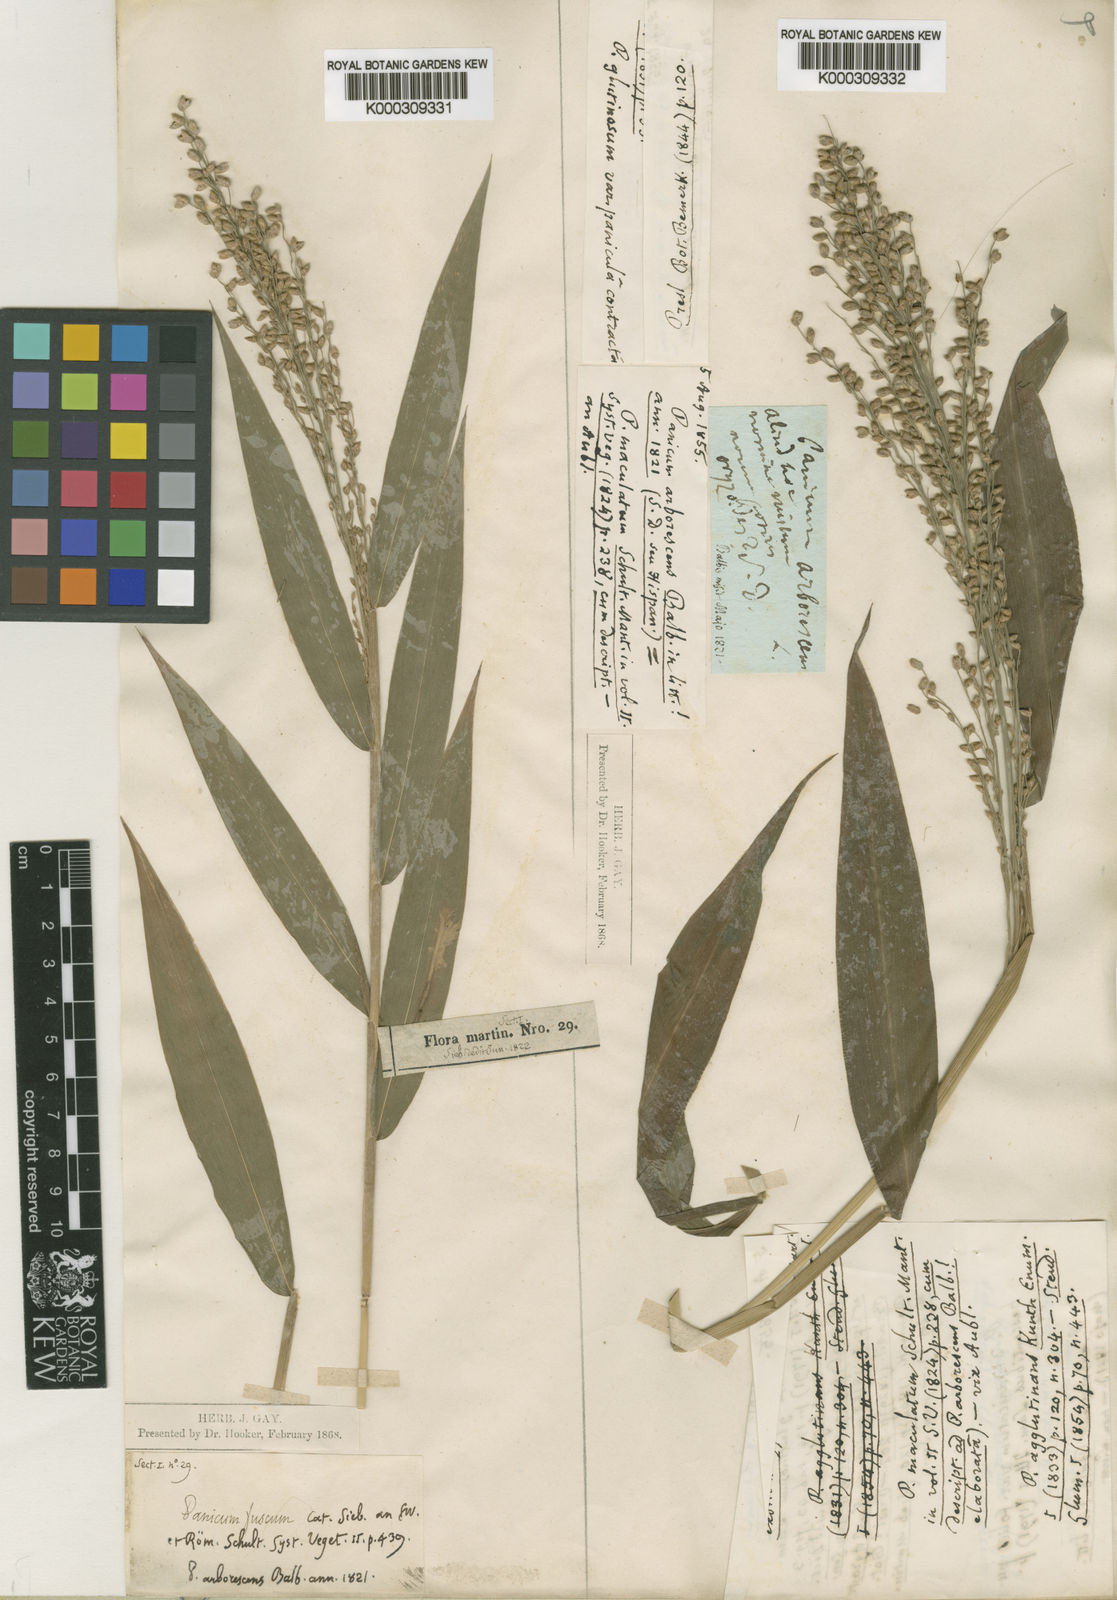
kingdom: Plantae
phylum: Tracheophyta
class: Liliopsida
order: Poales
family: Poaceae
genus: Lasiacis
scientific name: Lasiacis maculata
